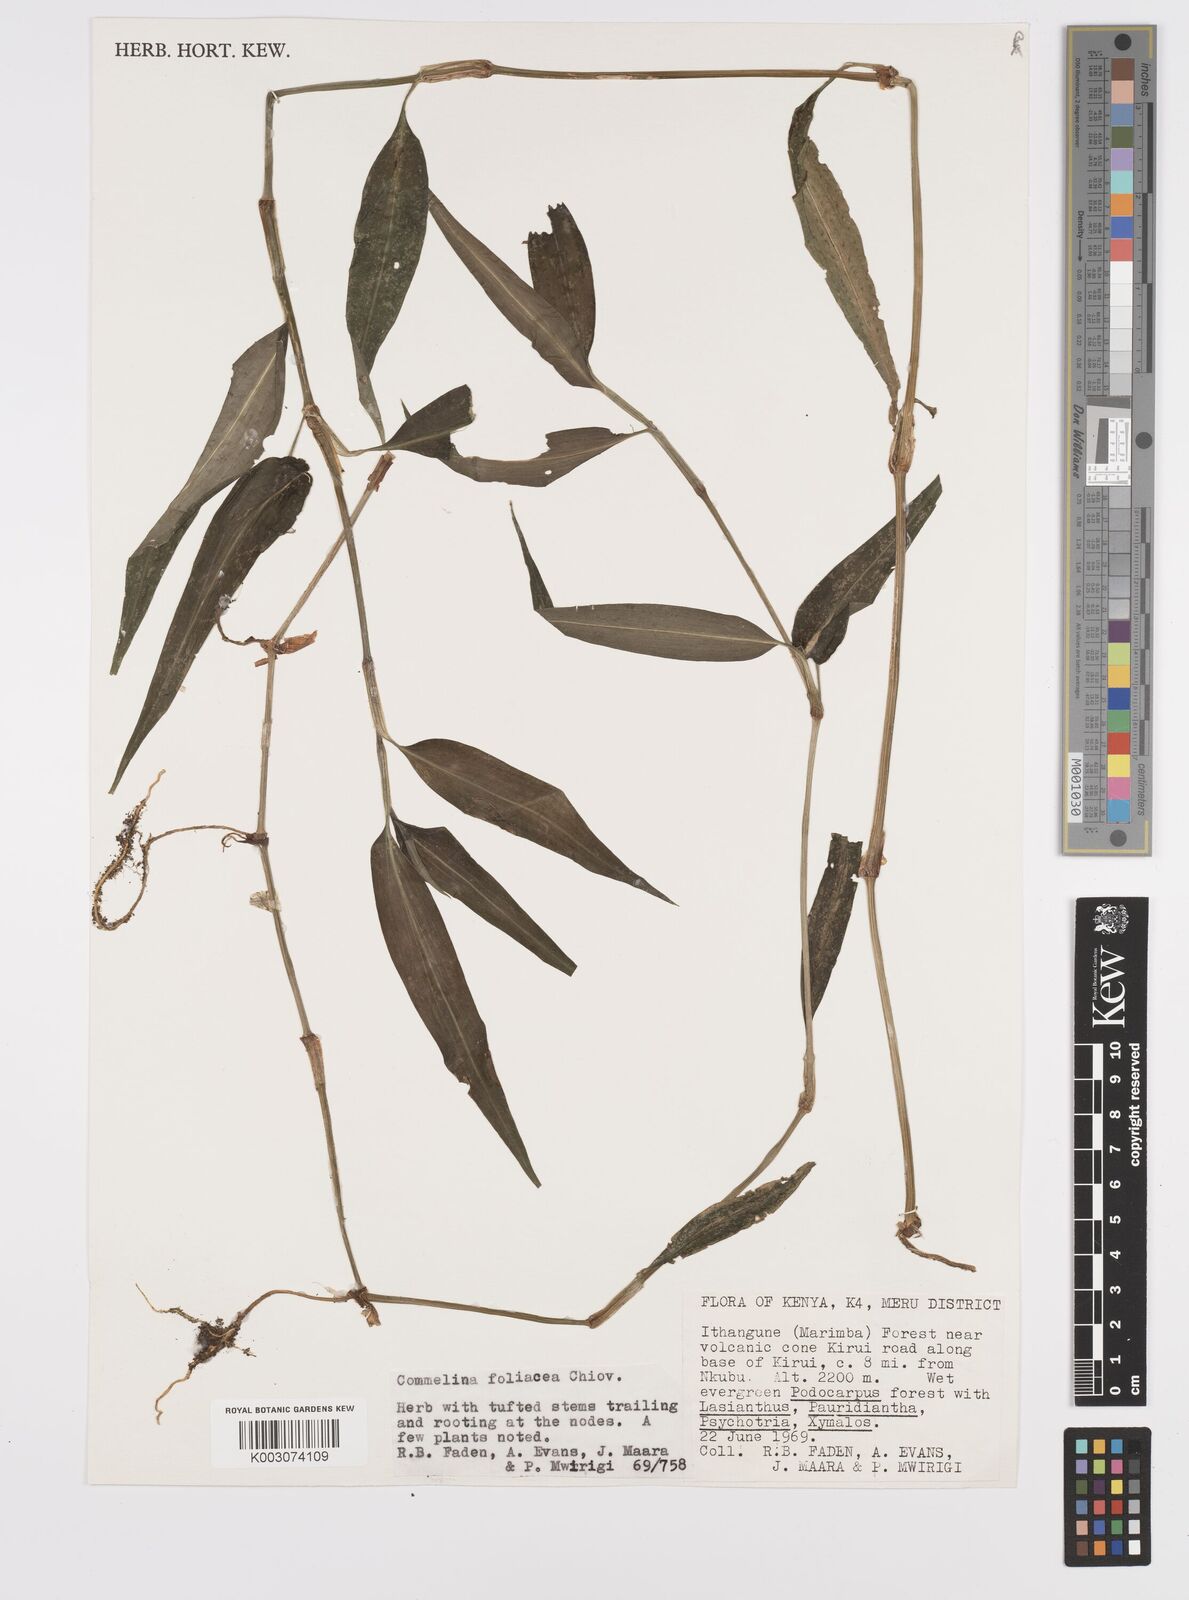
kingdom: Plantae
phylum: Tracheophyta
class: Liliopsida
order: Commelinales
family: Commelinaceae
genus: Commelina
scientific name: Commelina foliacea
